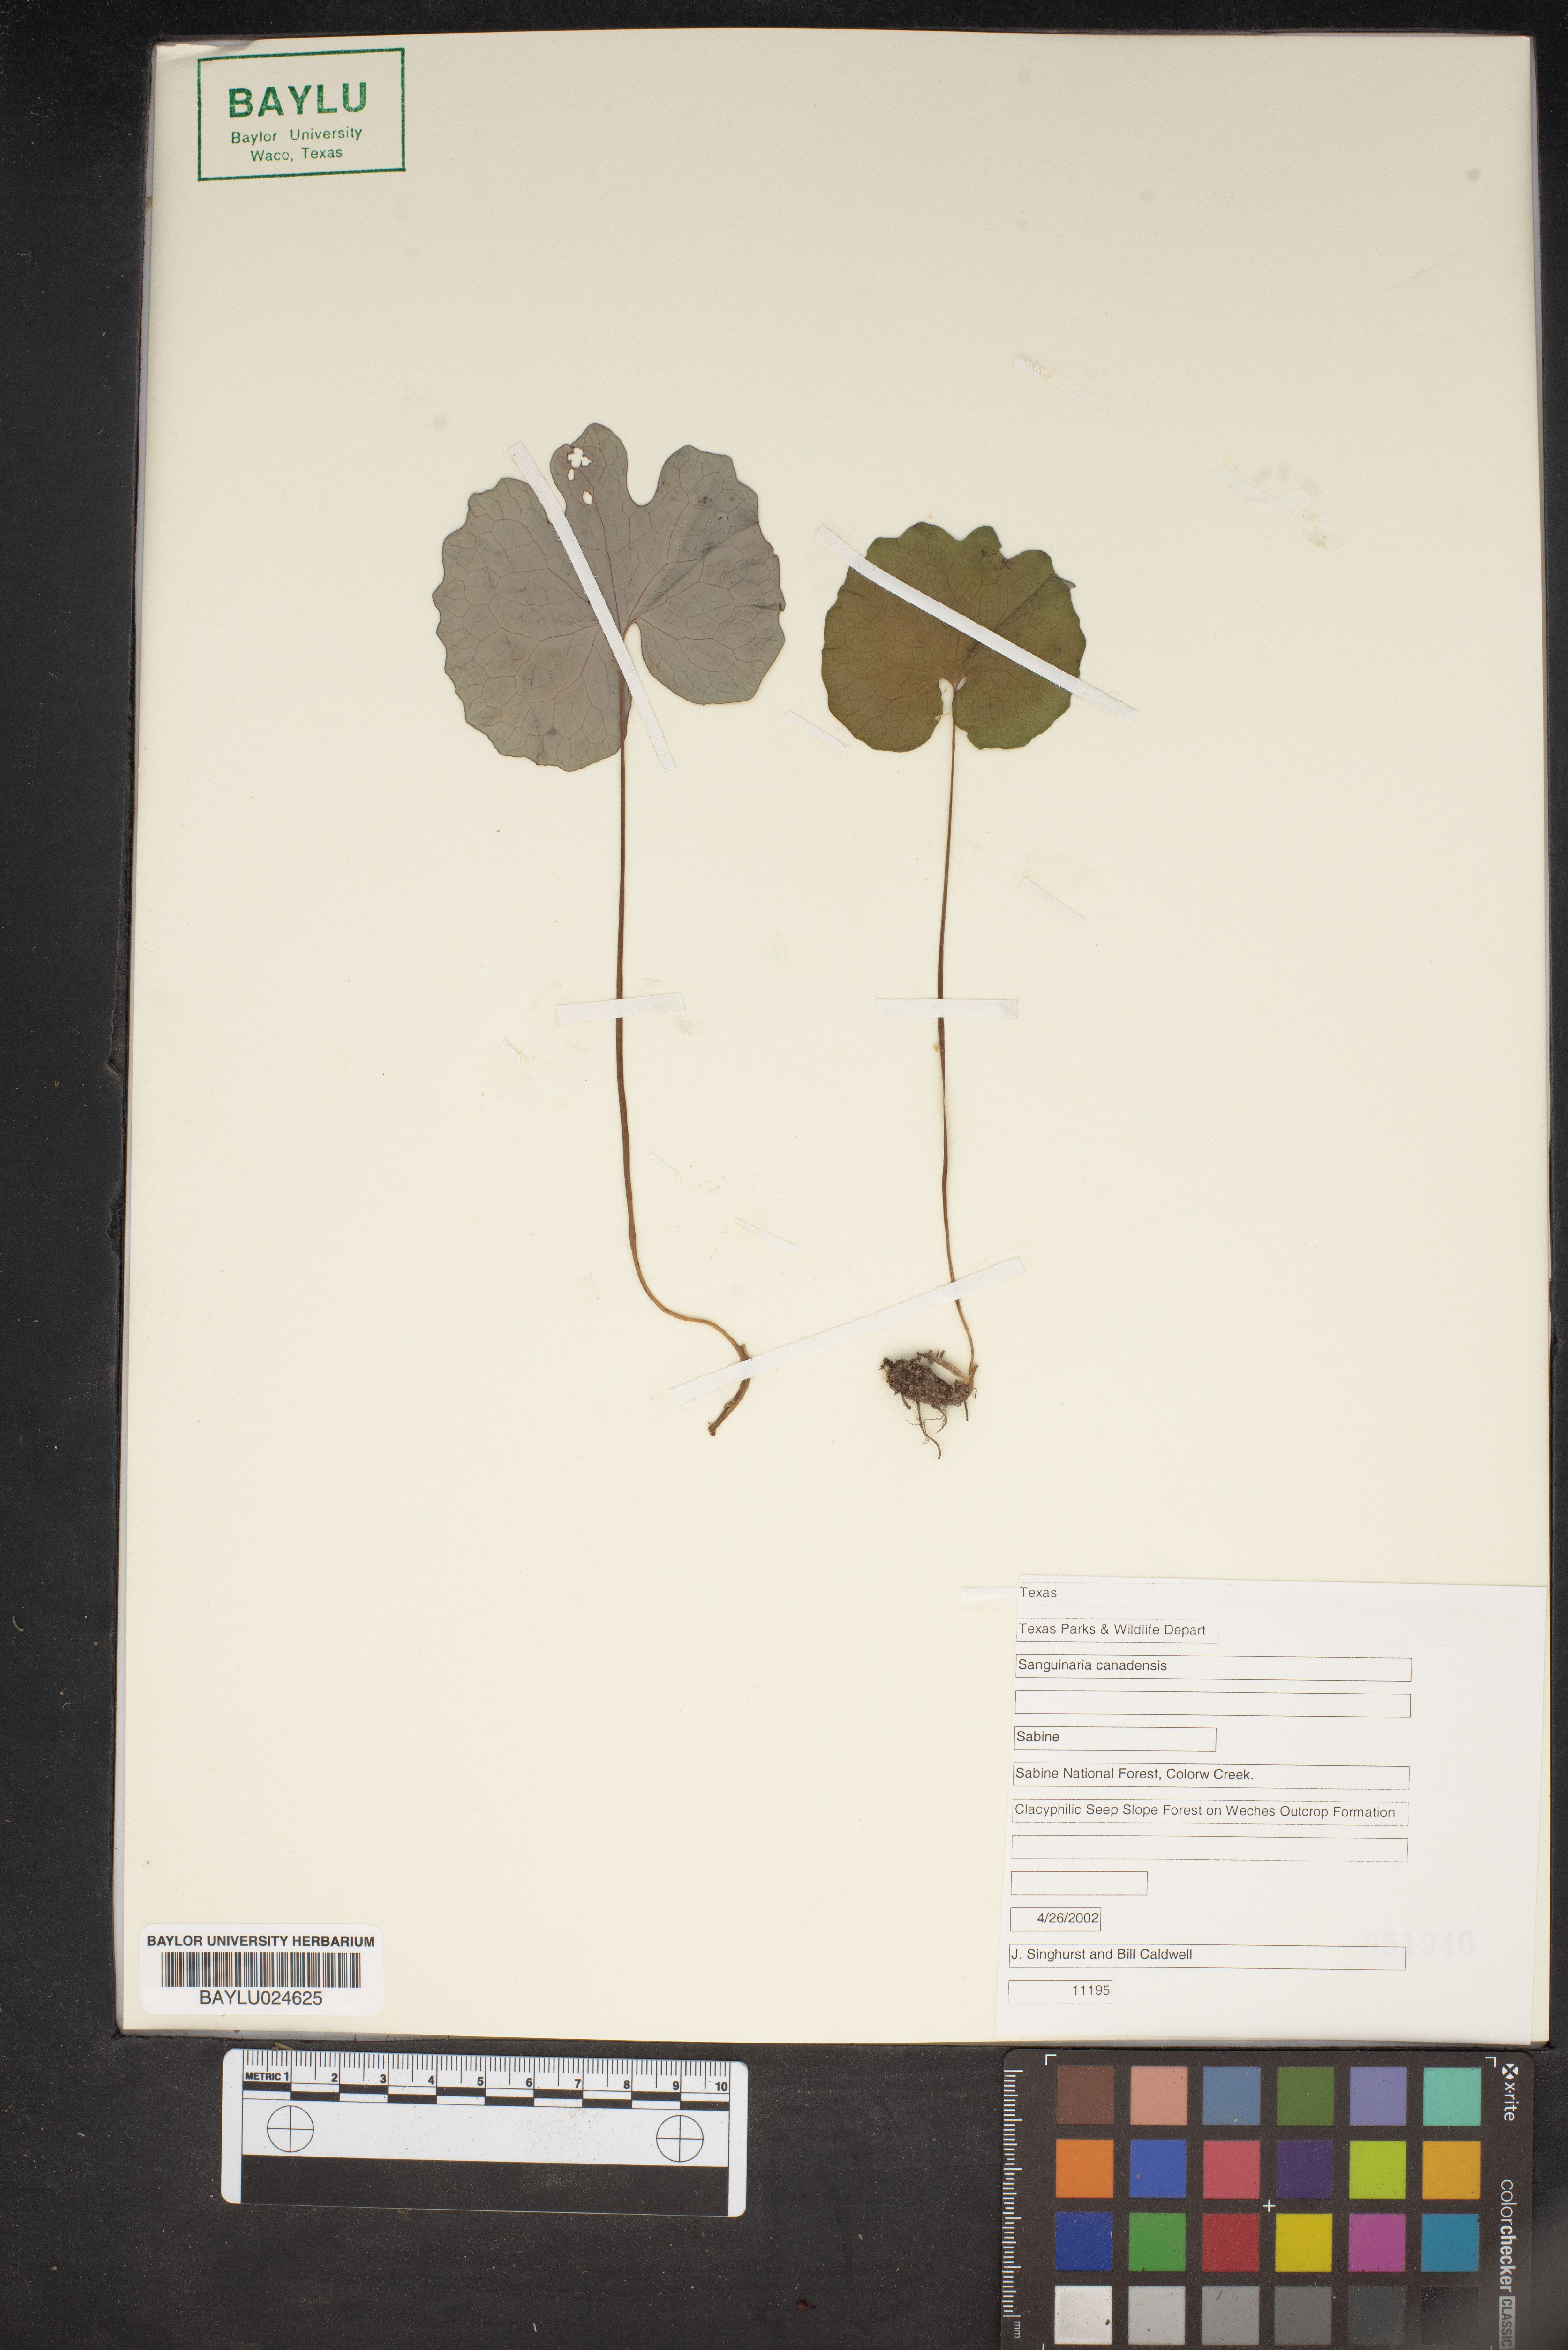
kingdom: Plantae
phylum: Tracheophyta
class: Magnoliopsida
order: Ranunculales
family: Papaveraceae
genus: Sanguinaria
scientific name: Sanguinaria canadensis
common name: Bloodroot
